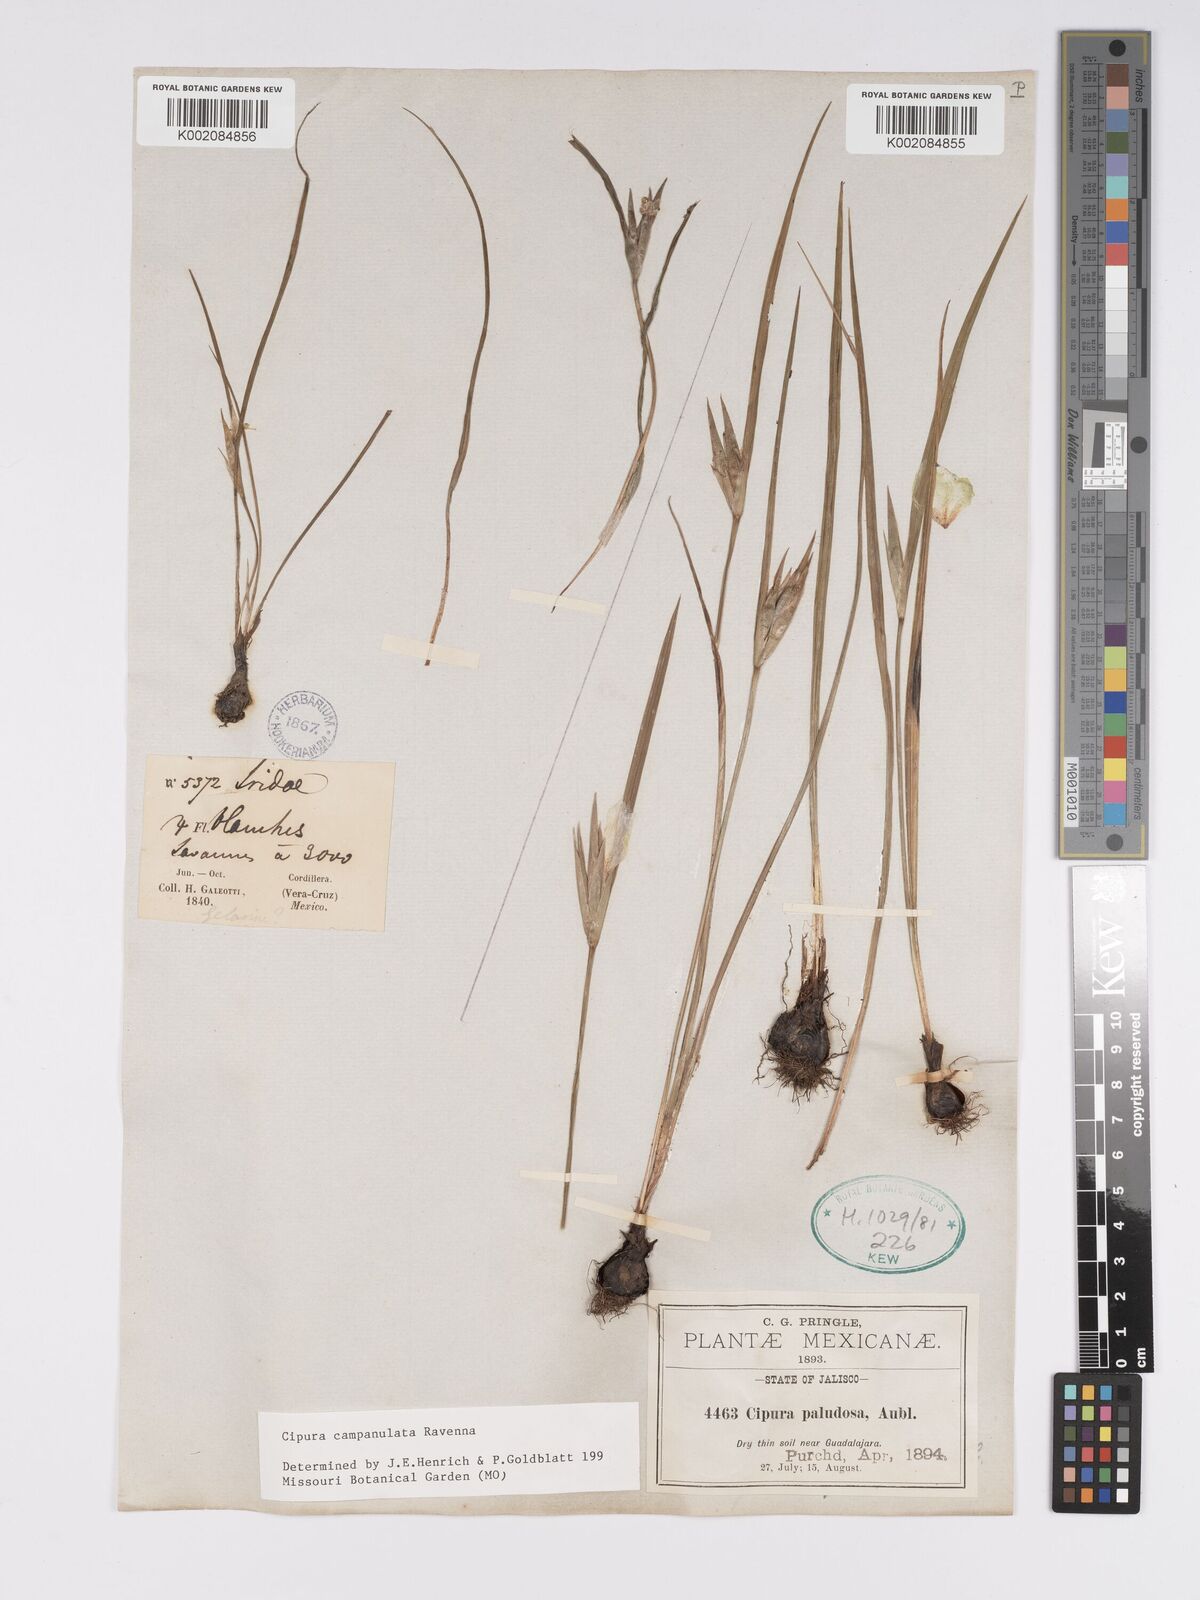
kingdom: Plantae
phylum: Tracheophyta
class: Liliopsida
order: Asparagales
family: Iridaceae
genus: Cipura
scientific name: Cipura campanulata
